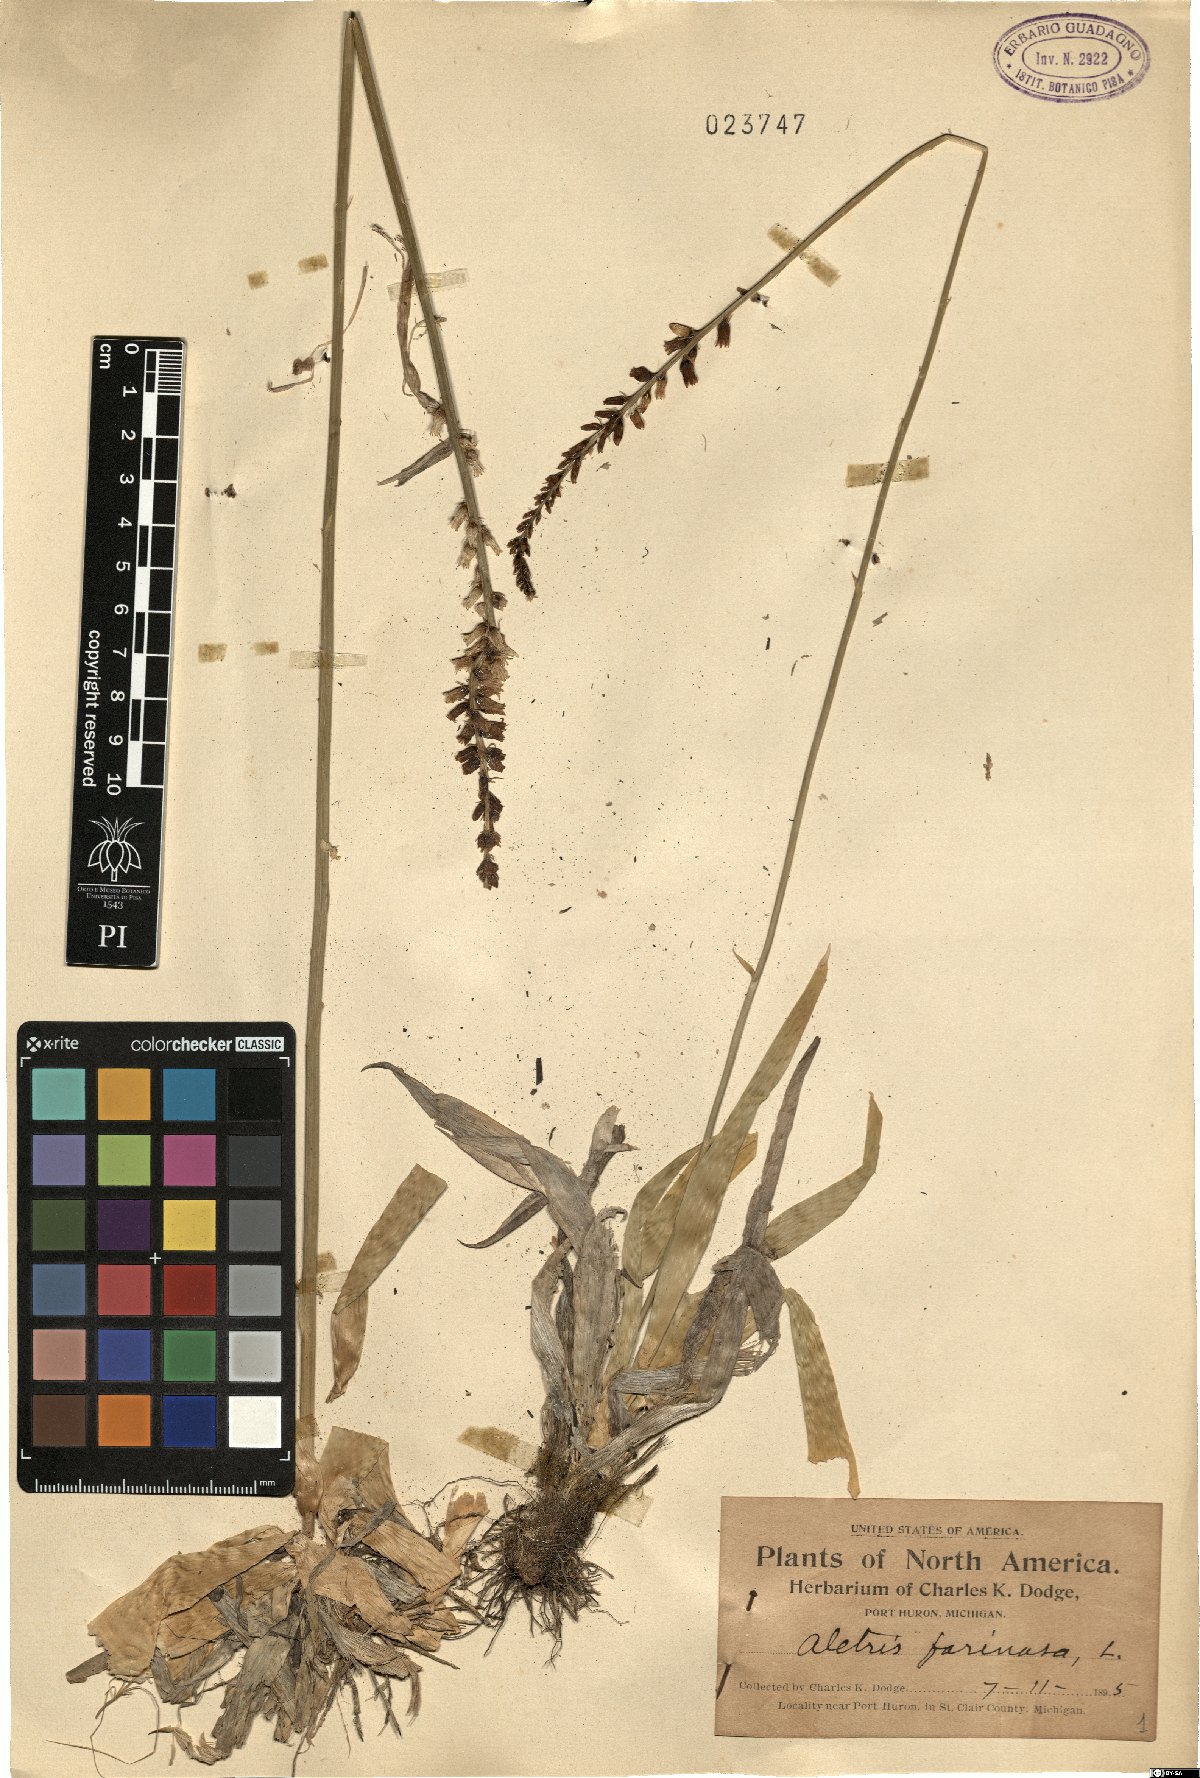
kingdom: Plantae
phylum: Tracheophyta
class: Liliopsida
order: Dioscoreales
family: Nartheciaceae
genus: Aletris
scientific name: Aletris farinosa
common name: Colicroot
